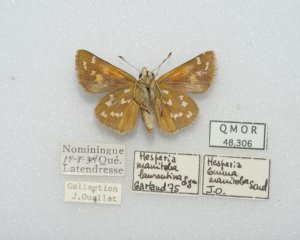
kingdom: Animalia
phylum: Arthropoda
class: Insecta
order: Lepidoptera
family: Hesperiidae
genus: Hesperia
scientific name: Hesperia comma
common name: Common Branded Skipper
